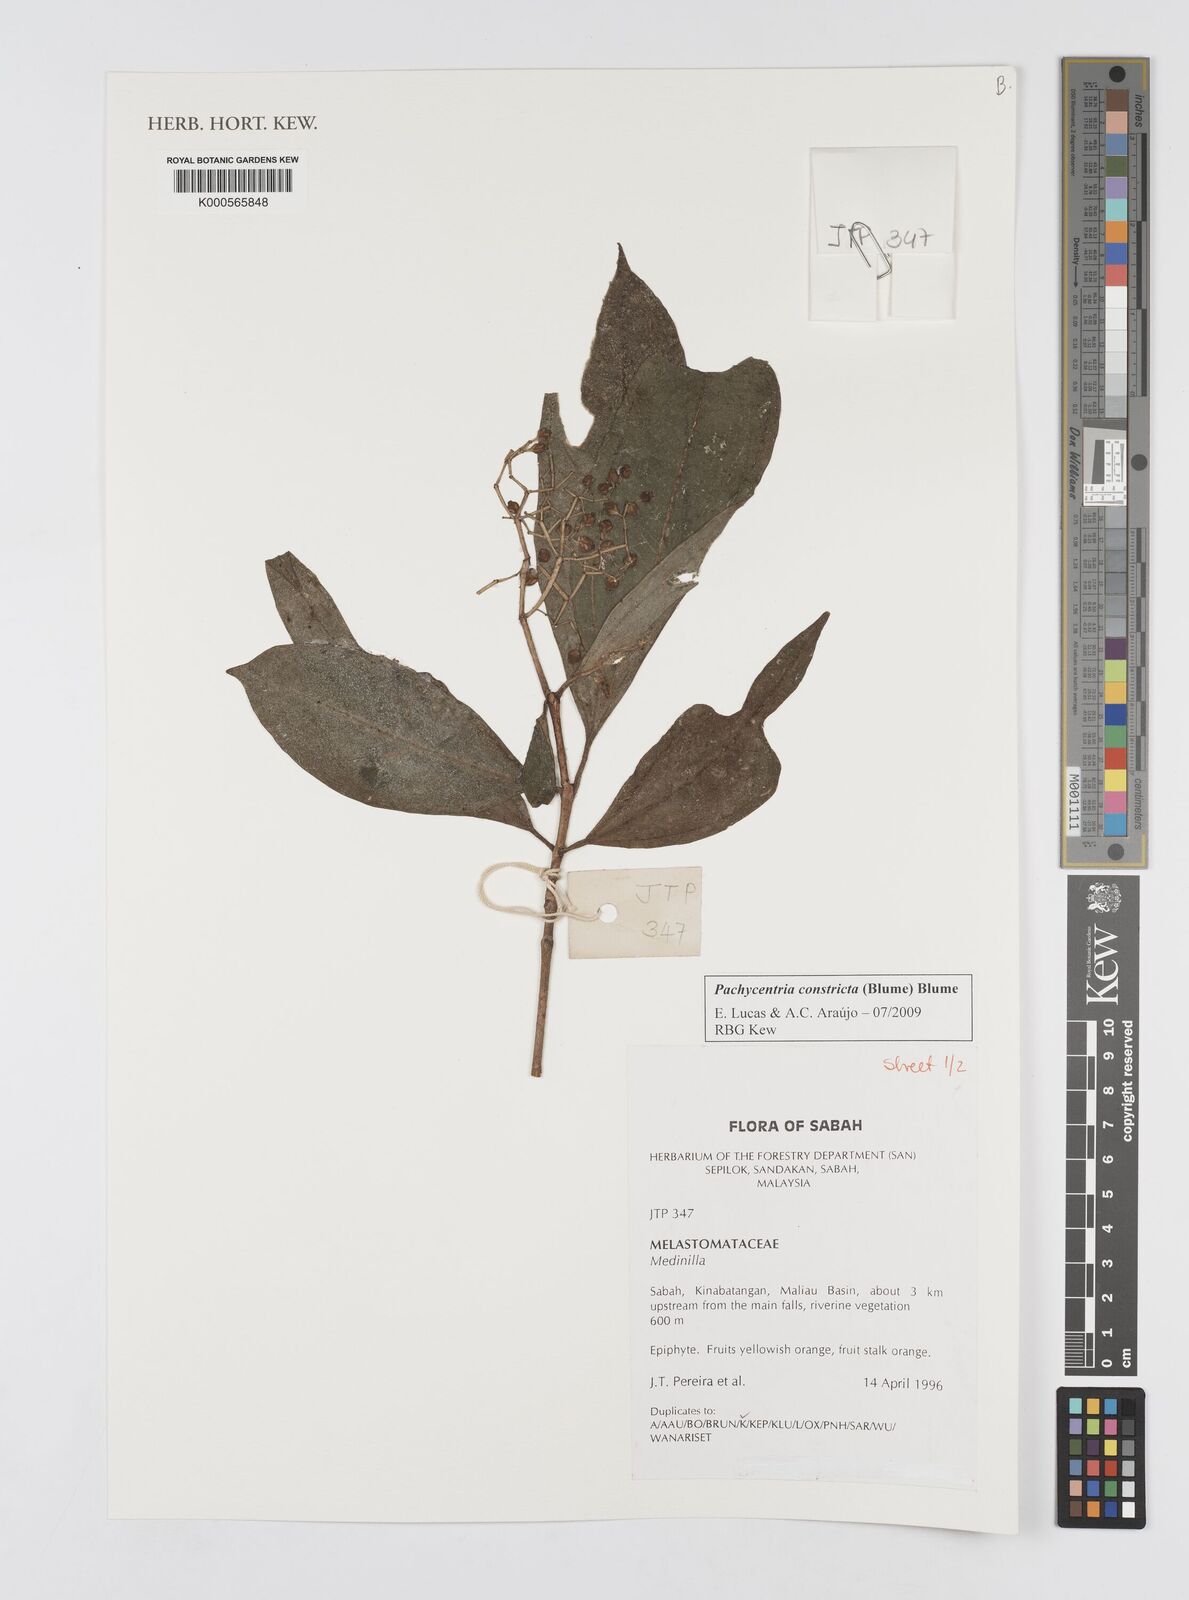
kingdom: Plantae
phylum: Tracheophyta
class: Magnoliopsida
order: Myrtales
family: Melastomataceae
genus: Pachycentria
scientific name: Pachycentria constricta
